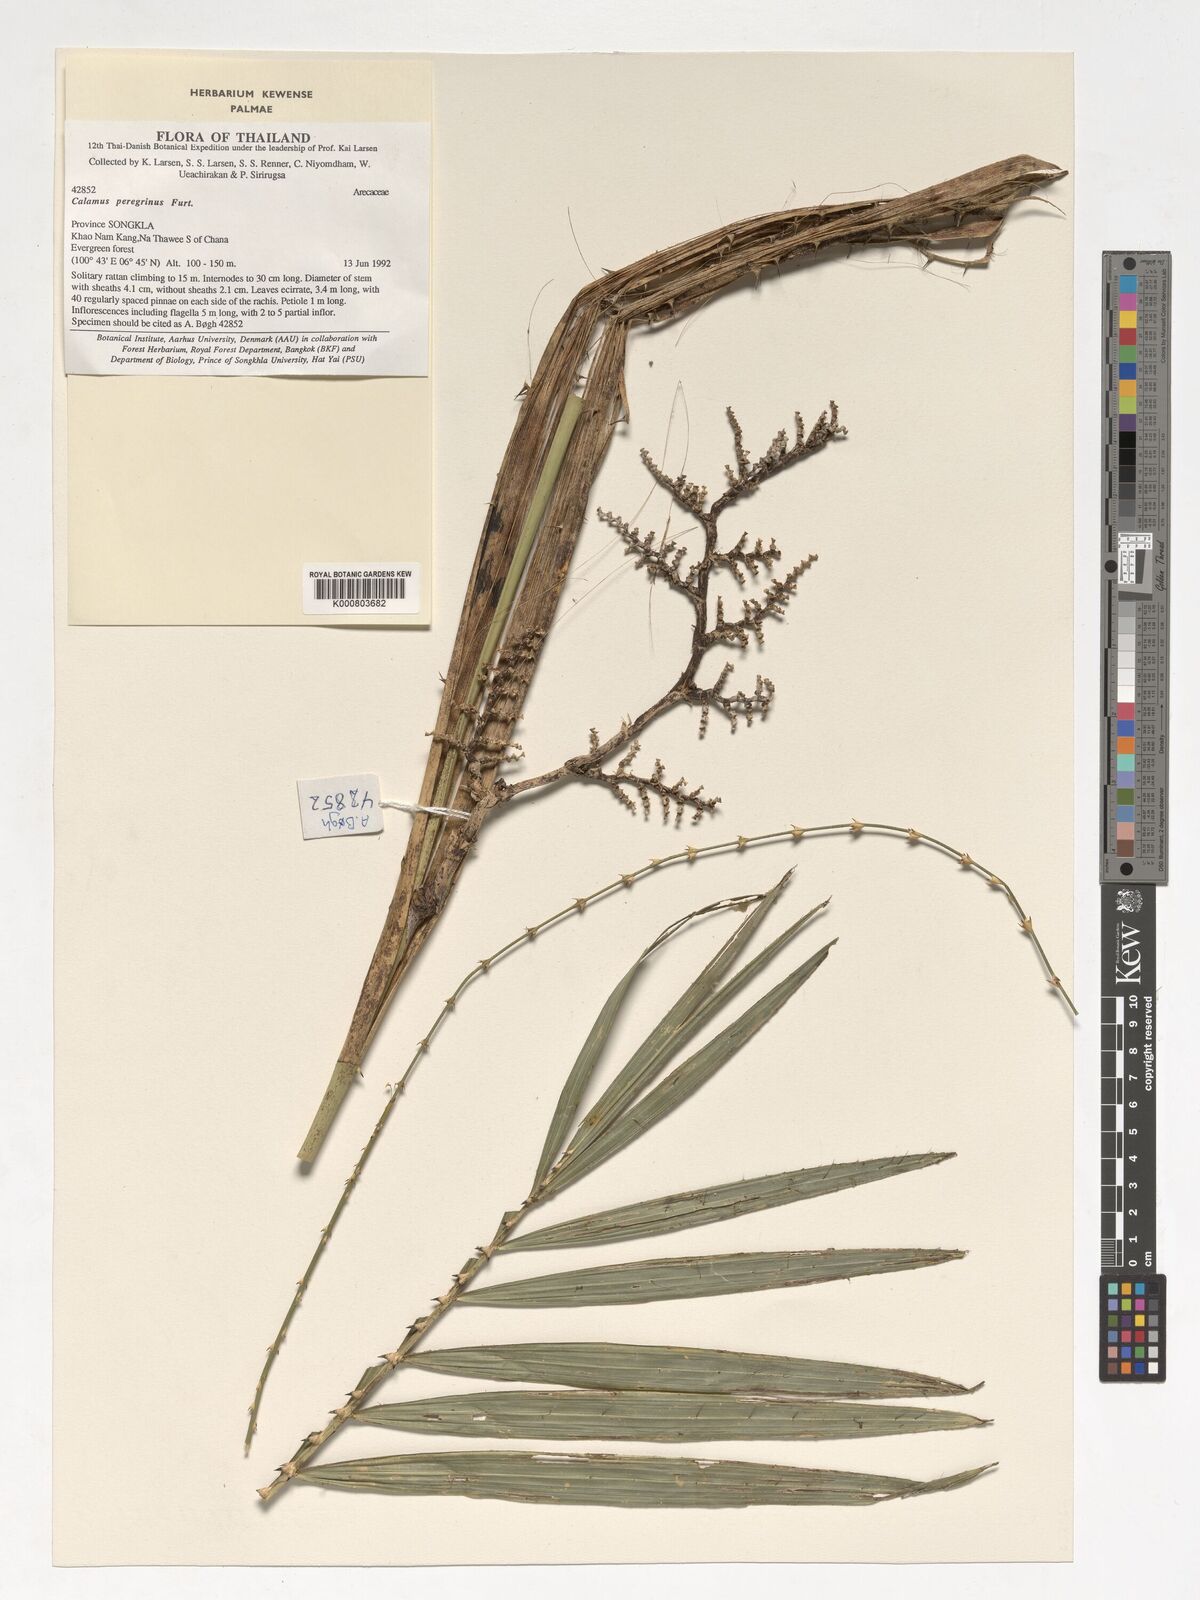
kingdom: Plantae
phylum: Tracheophyta
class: Liliopsida
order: Arecales
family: Arecaceae
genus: Calamus
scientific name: Calamus peregrinus
